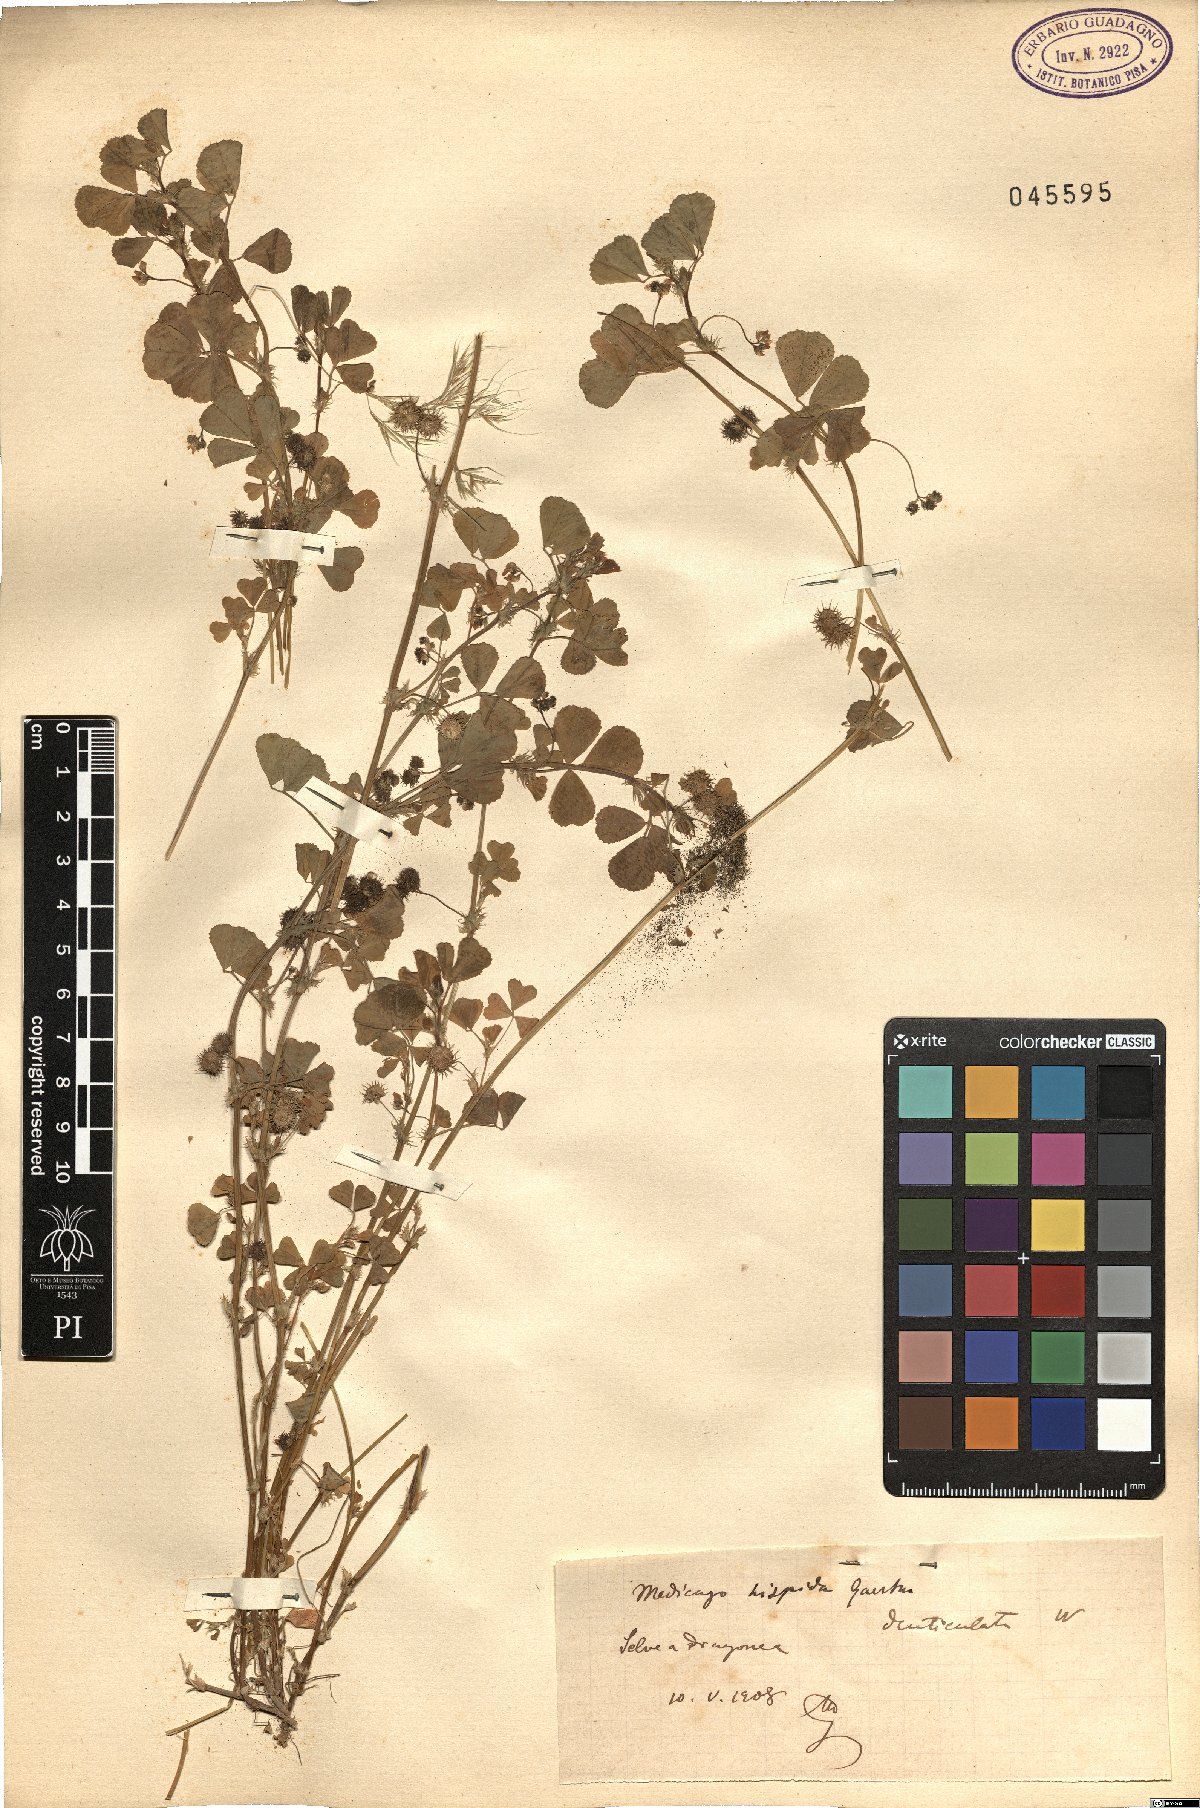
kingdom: Plantae
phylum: Tracheophyta
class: Magnoliopsida
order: Fabales
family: Fabaceae
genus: Medicago
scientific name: Medicago polymorpha
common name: Burclover
